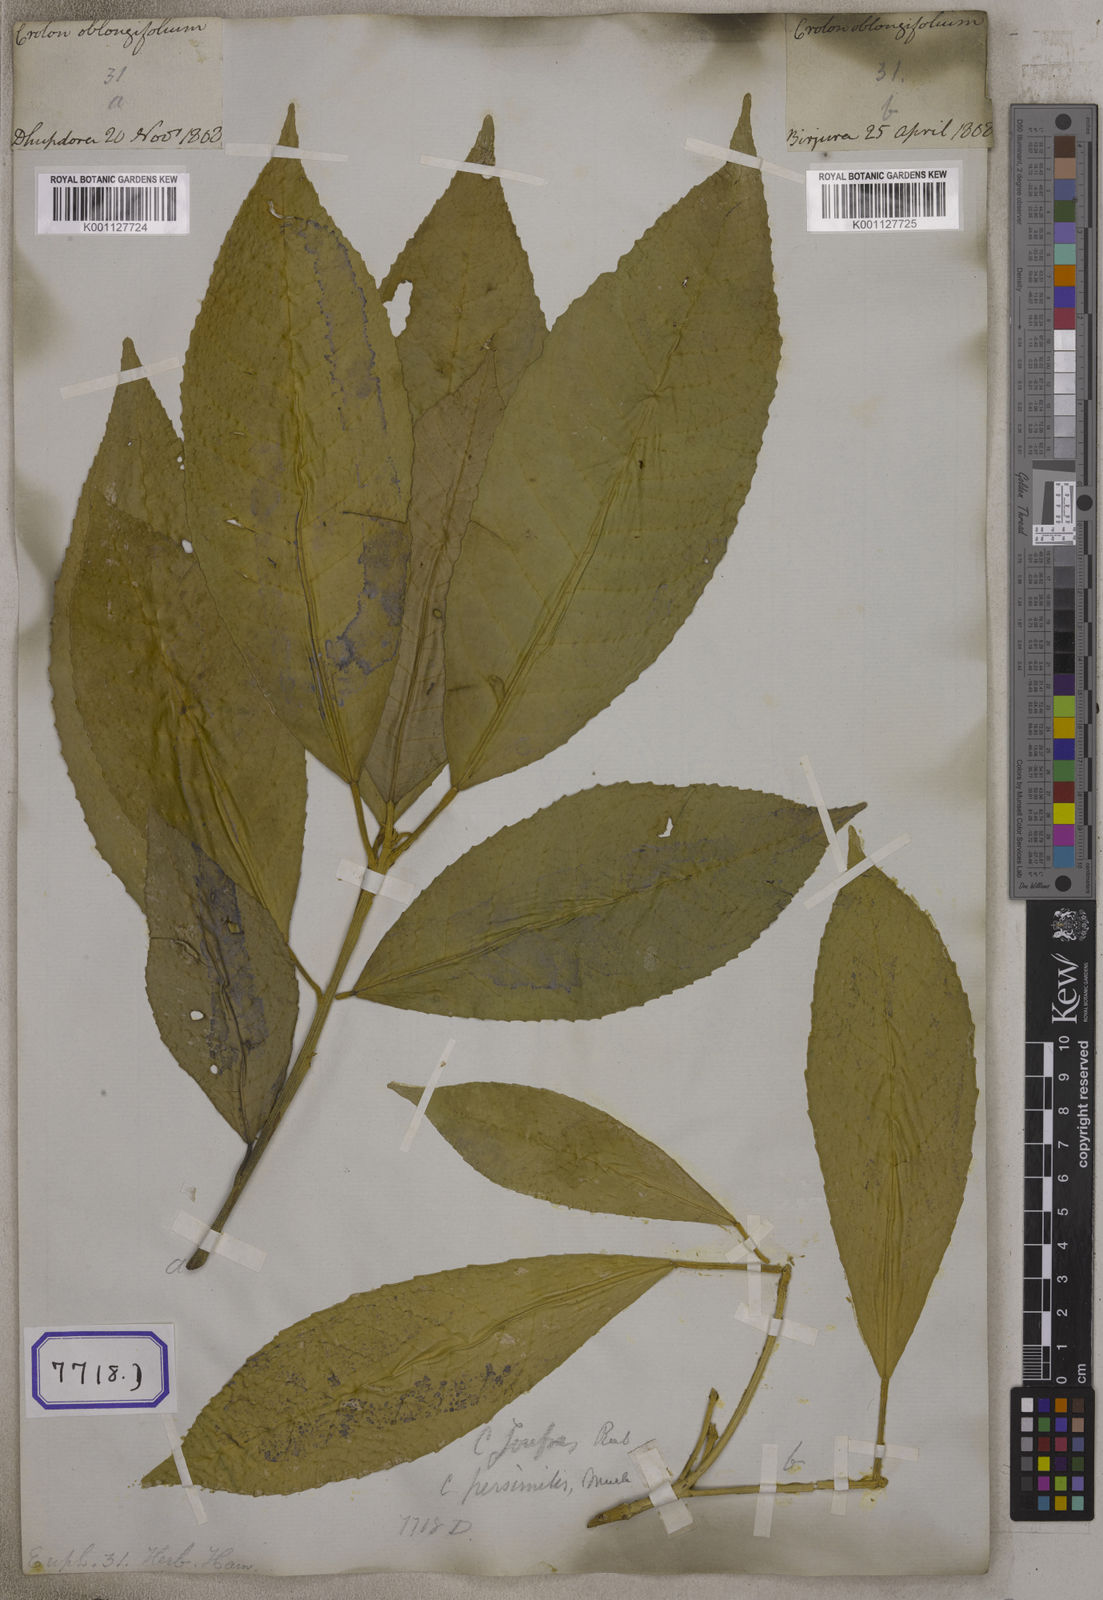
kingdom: Plantae
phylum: Tracheophyta
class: Magnoliopsida
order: Malpighiales
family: Euphorbiaceae
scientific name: Euphorbiaceae
